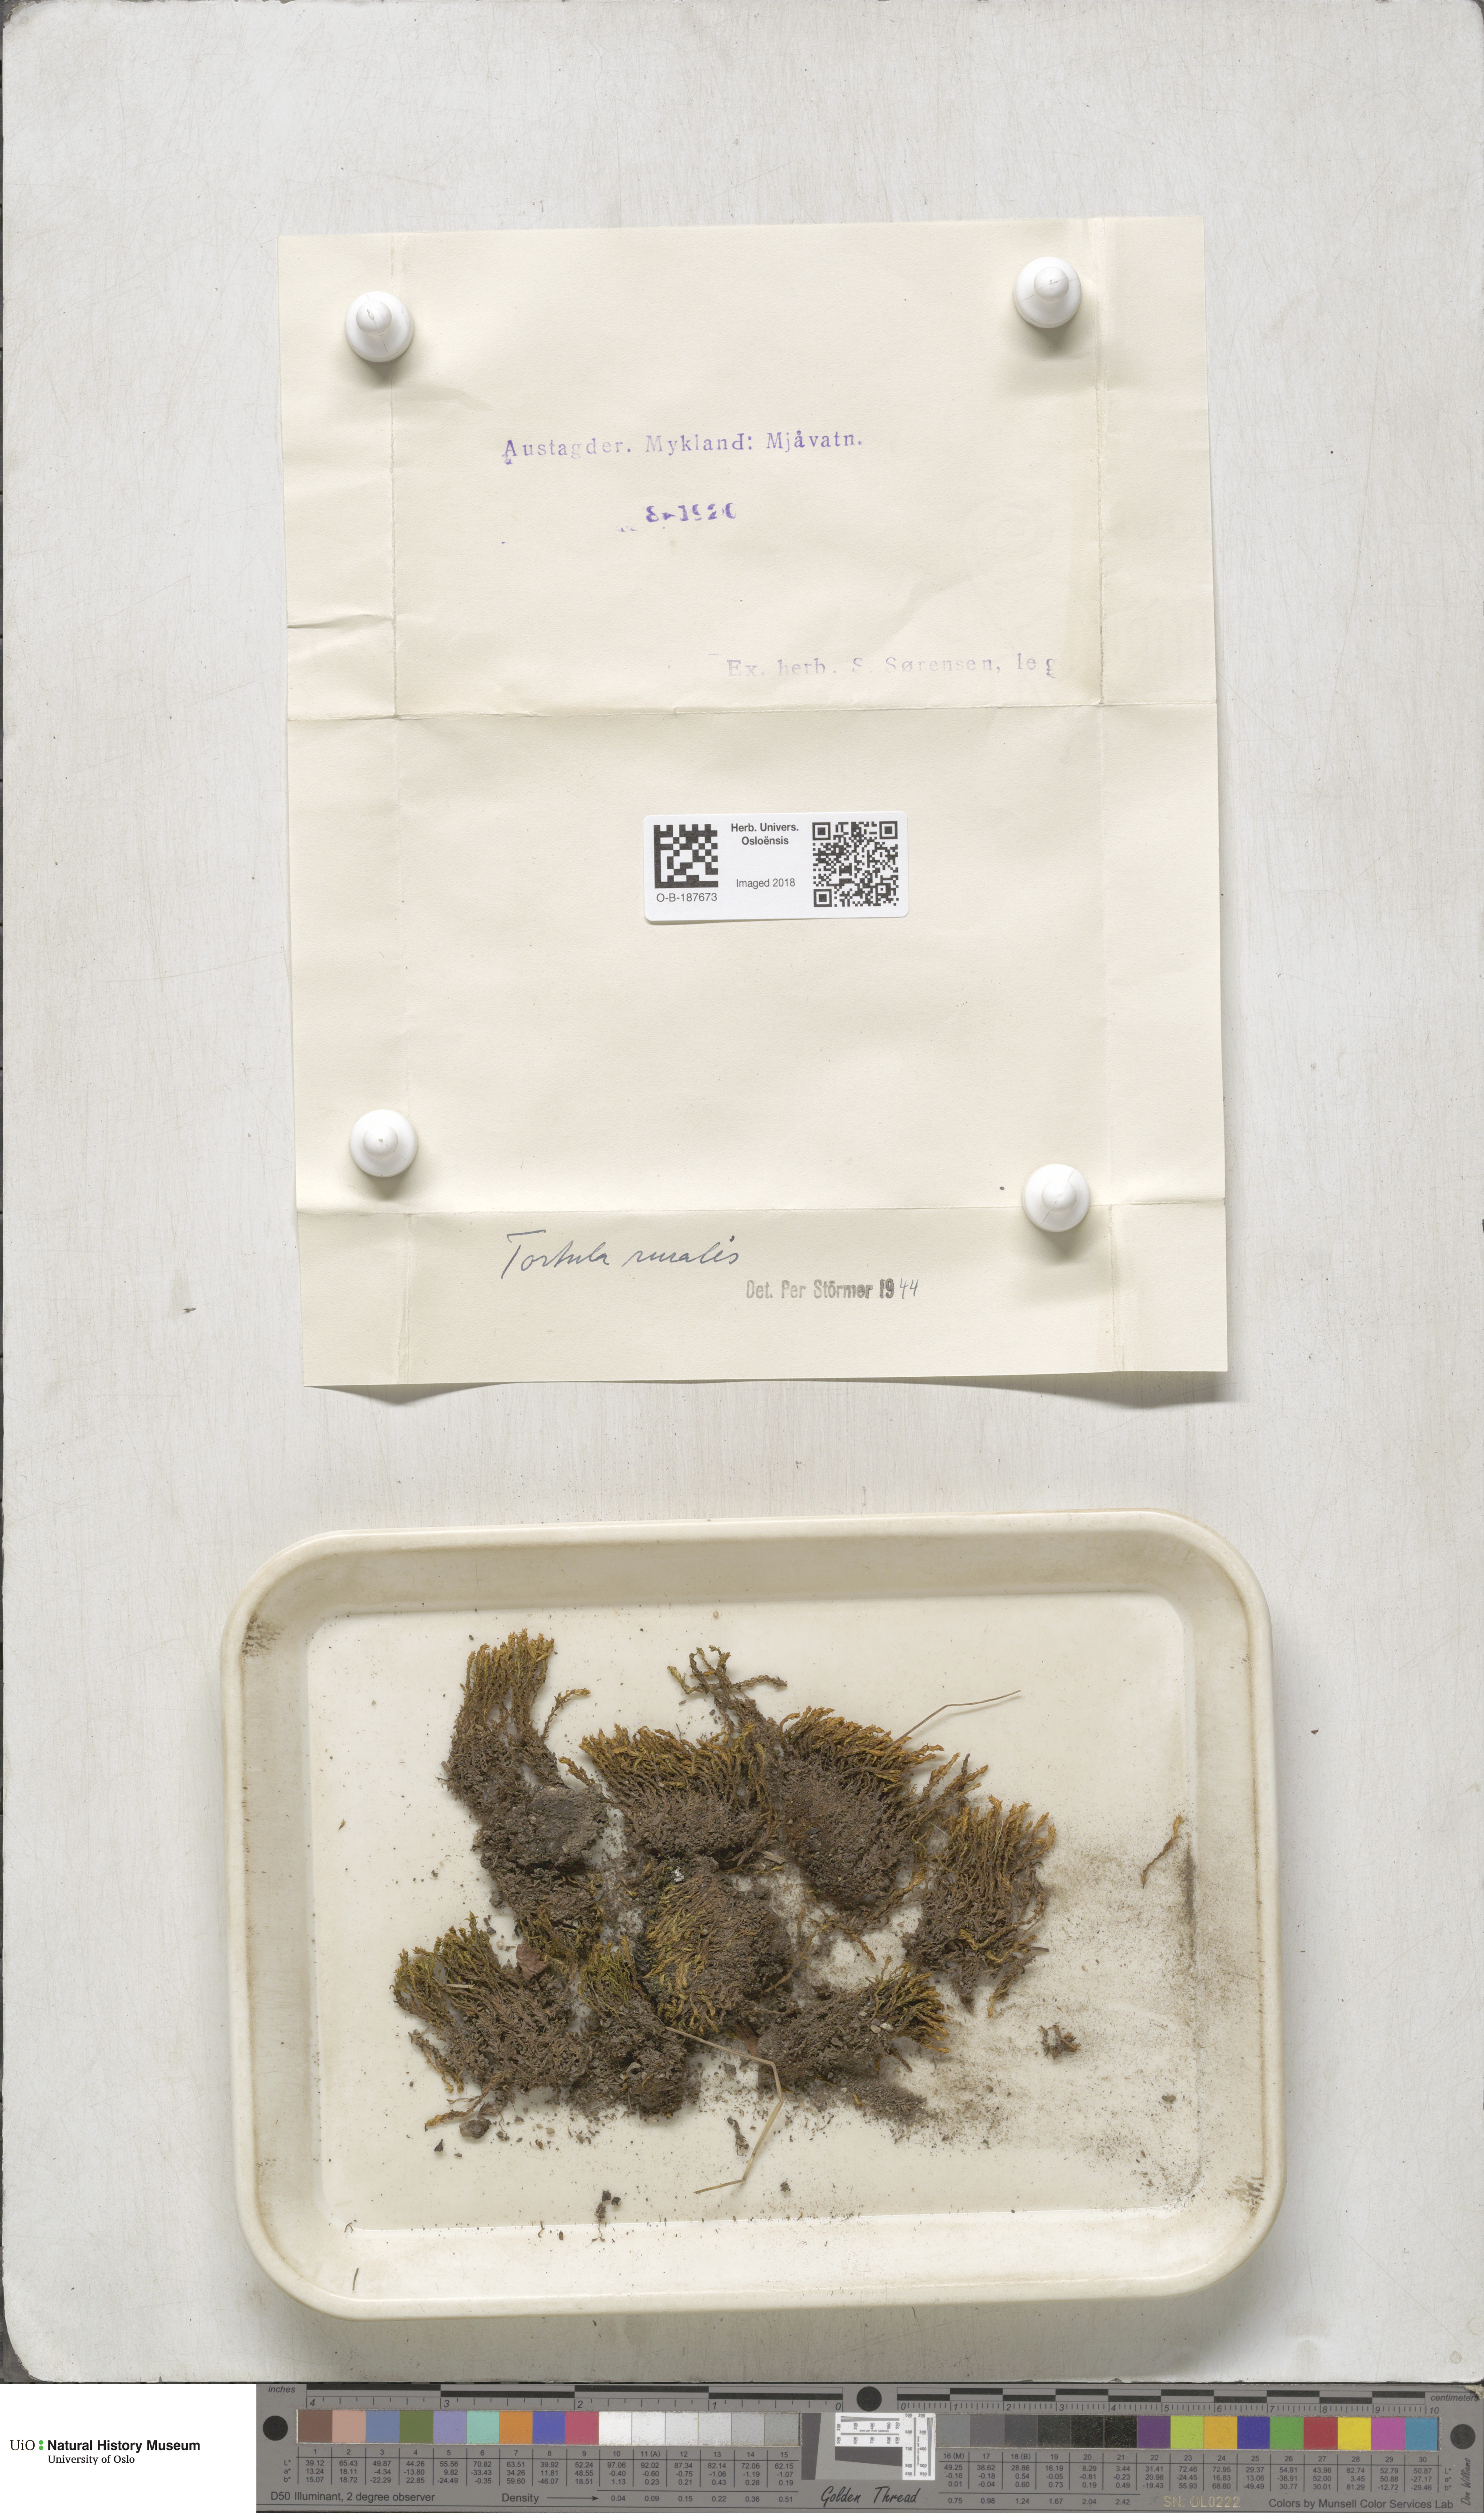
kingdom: Plantae
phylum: Bryophyta
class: Bryopsida
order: Pottiales
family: Pottiaceae
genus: Syntrichia
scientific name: Syntrichia ruralis
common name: Sidewalk screw moss
